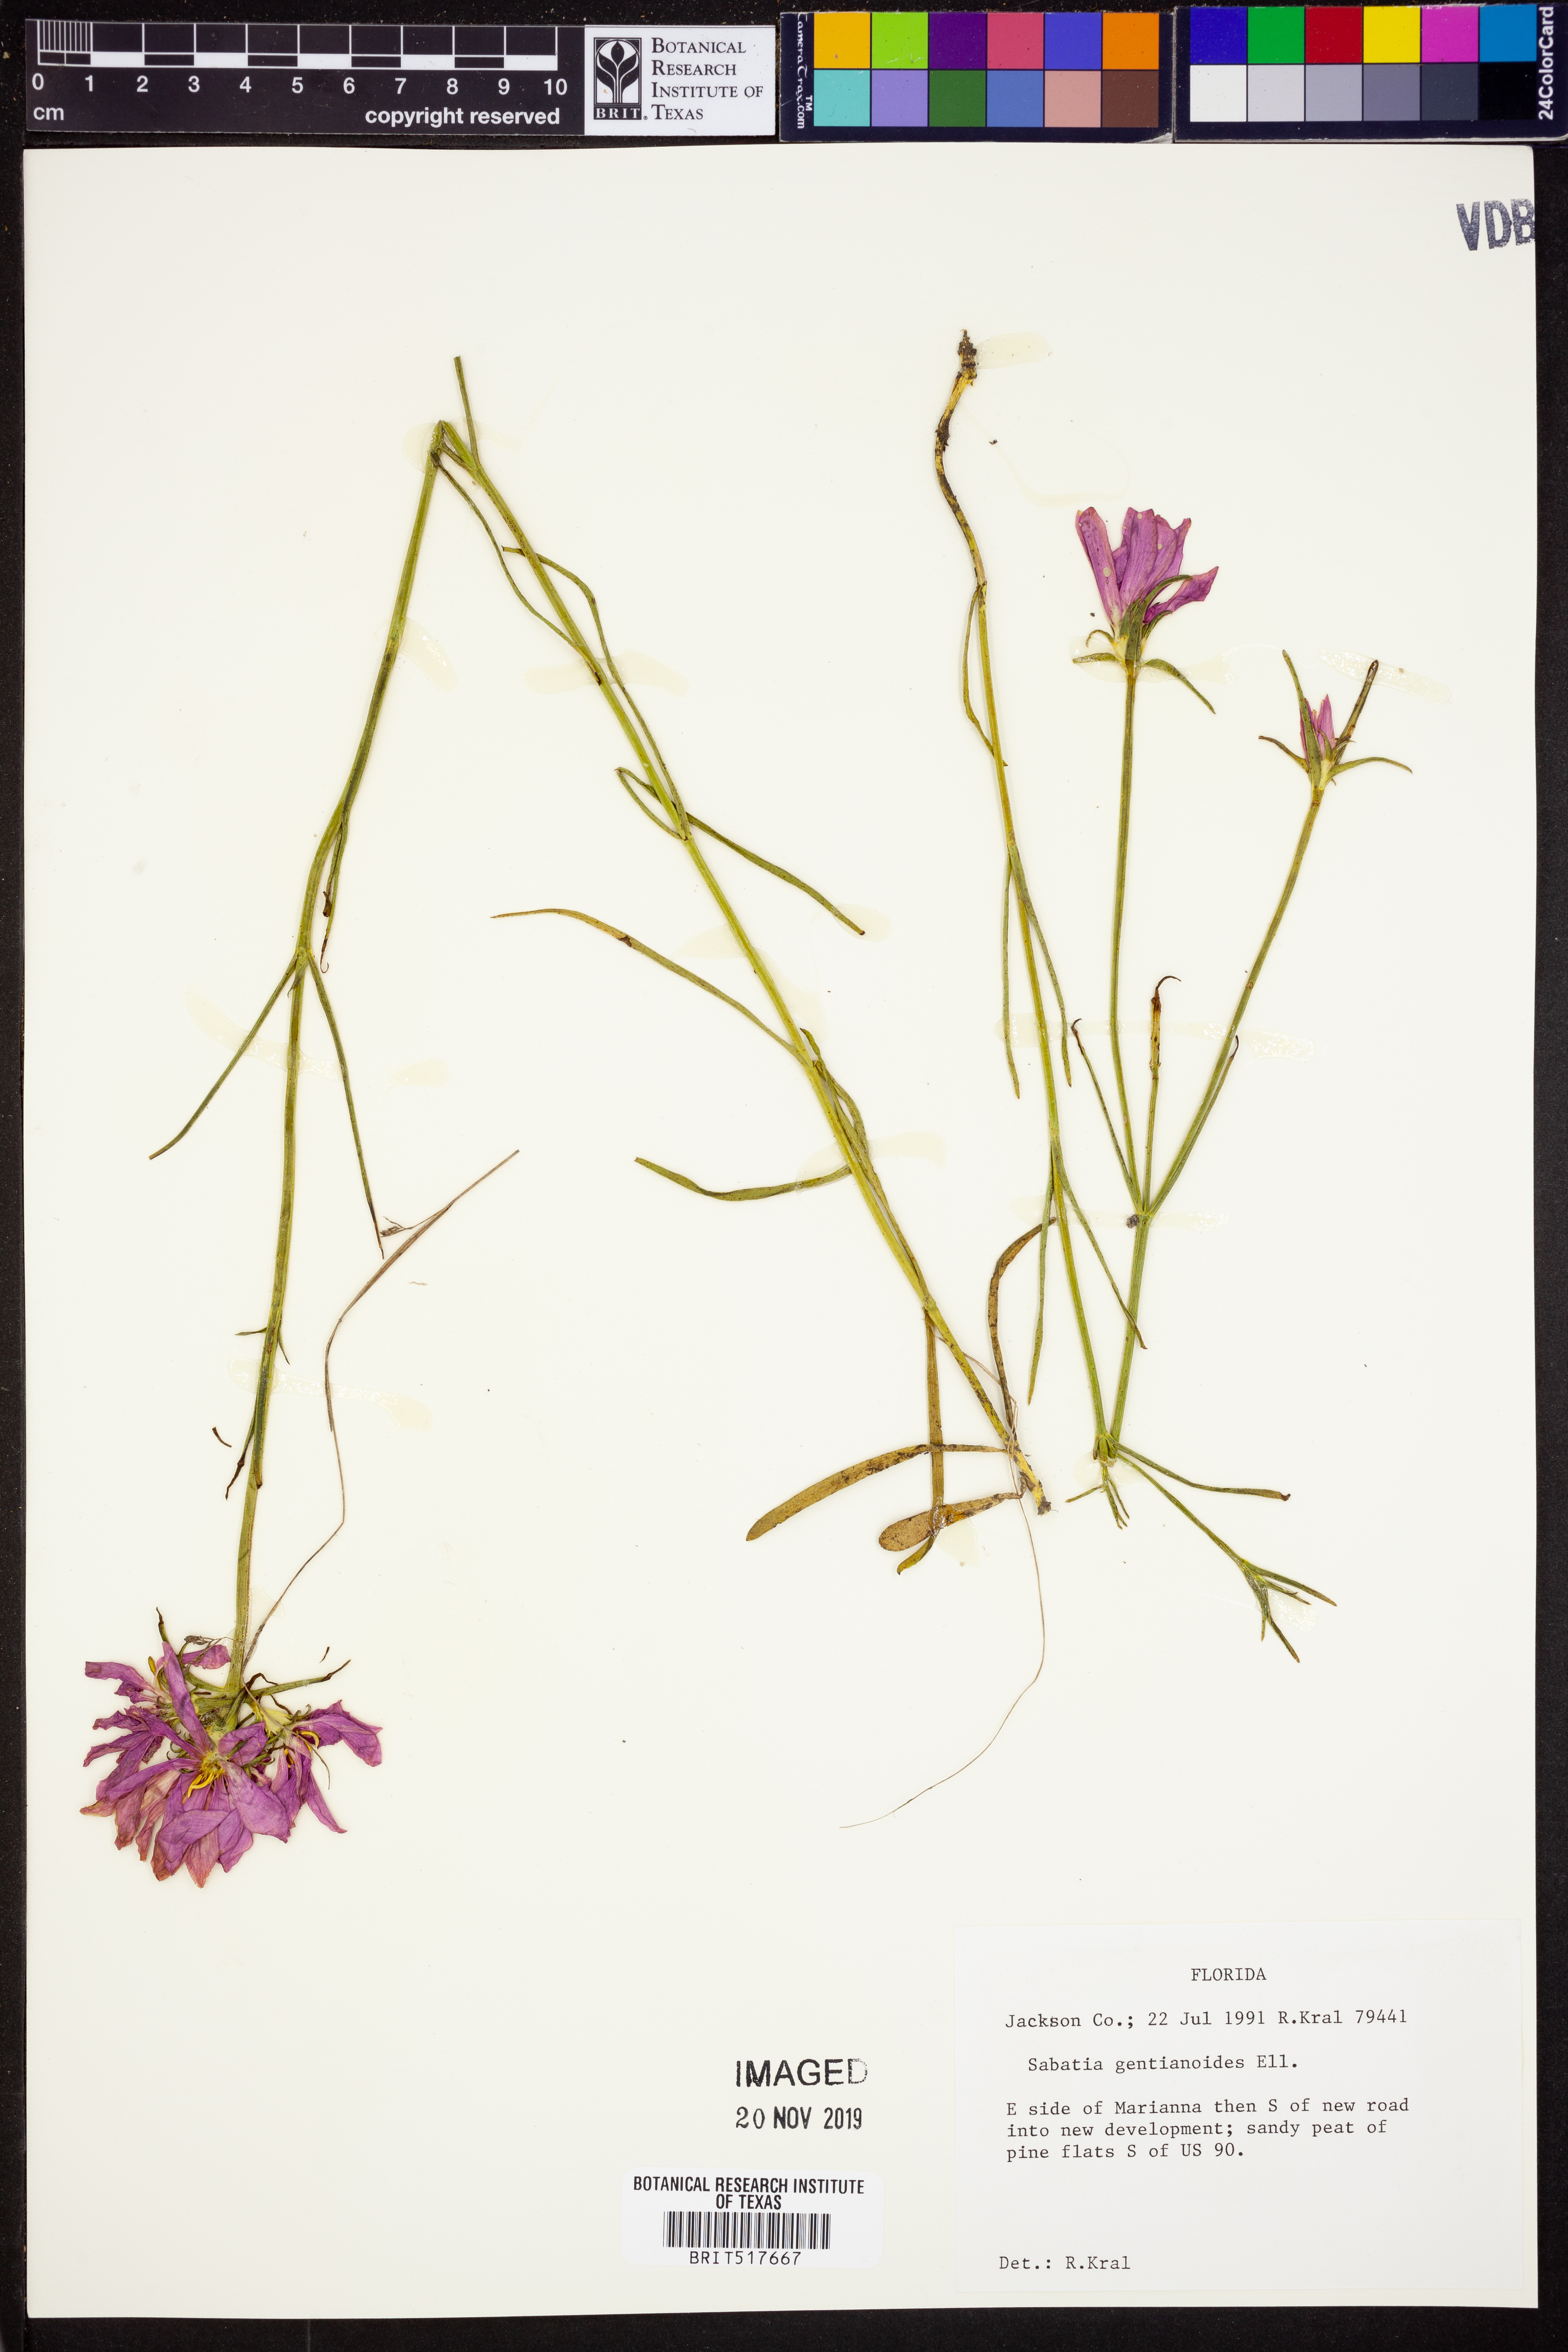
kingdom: Plantae
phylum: Tracheophyta
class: Magnoliopsida
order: Gentianales
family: Gentianaceae
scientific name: Gentianaceae
